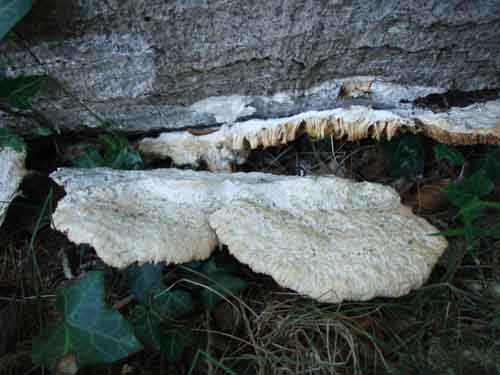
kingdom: Fungi
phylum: Basidiomycota
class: Agaricomycetes
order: Polyporales
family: Polyporaceae
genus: Trametes
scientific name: Trametes hirsuta
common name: håret læderporesvamp
